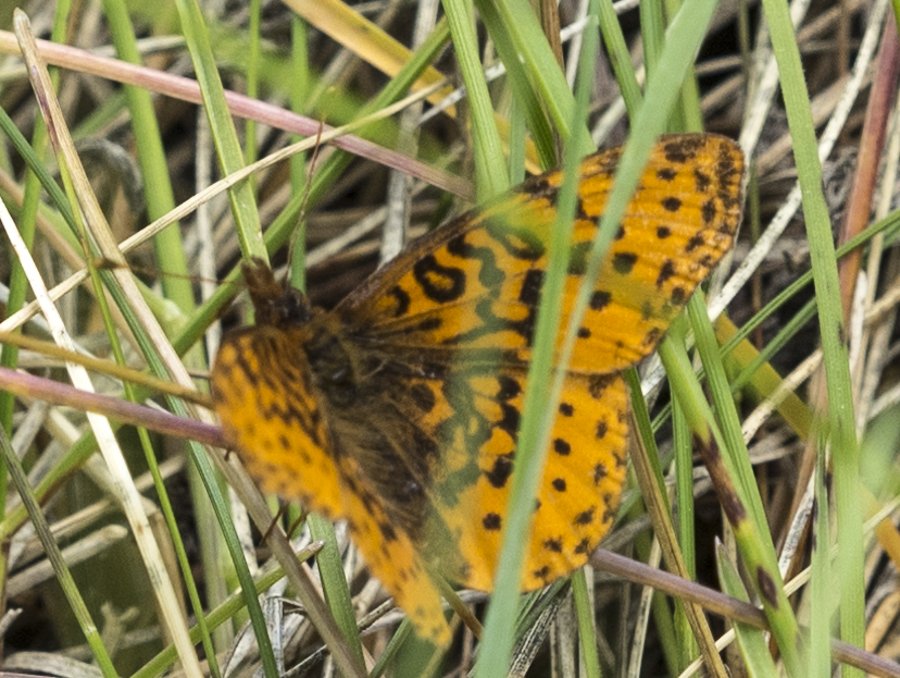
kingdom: Animalia
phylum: Arthropoda
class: Insecta
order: Lepidoptera
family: Nymphalidae
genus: Clossiana
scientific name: Clossiana toddi
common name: Meadow Fritillary
